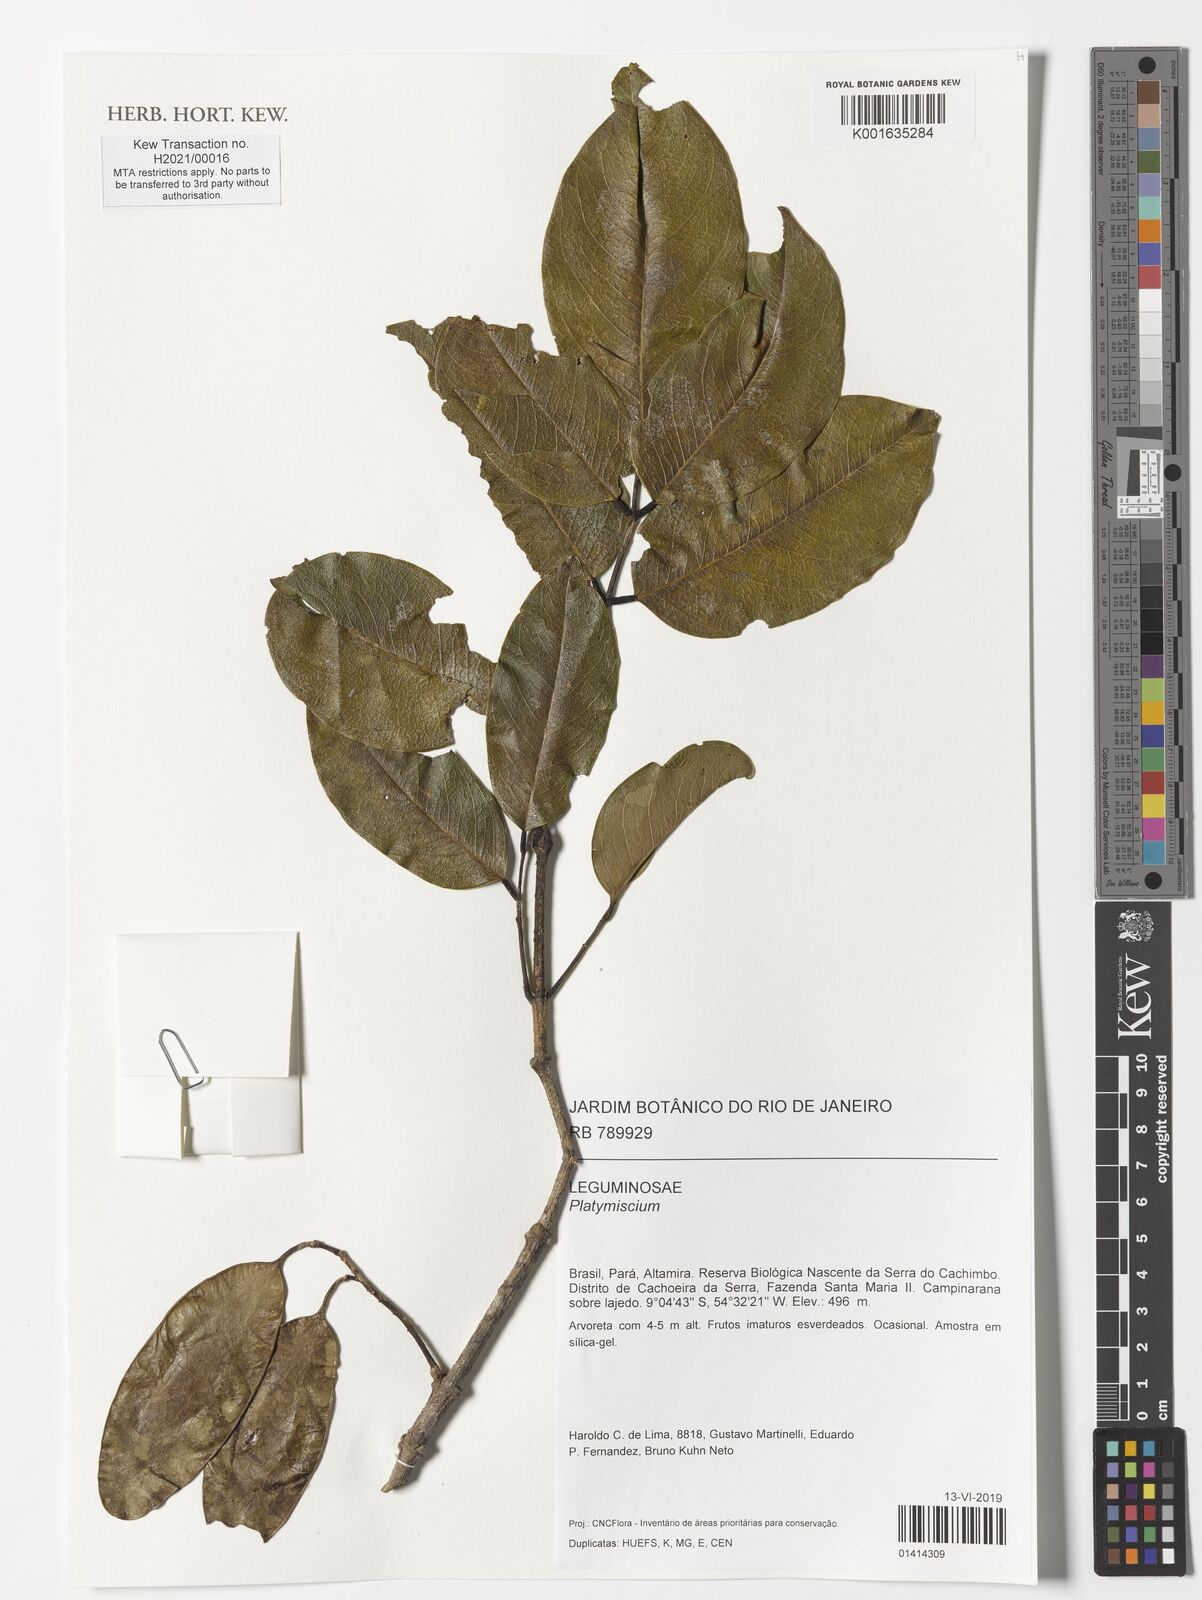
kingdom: Plantae
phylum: Tracheophyta
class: Magnoliopsida
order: Fabales
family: Fabaceae
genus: Platymiscium
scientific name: Platymiscium
